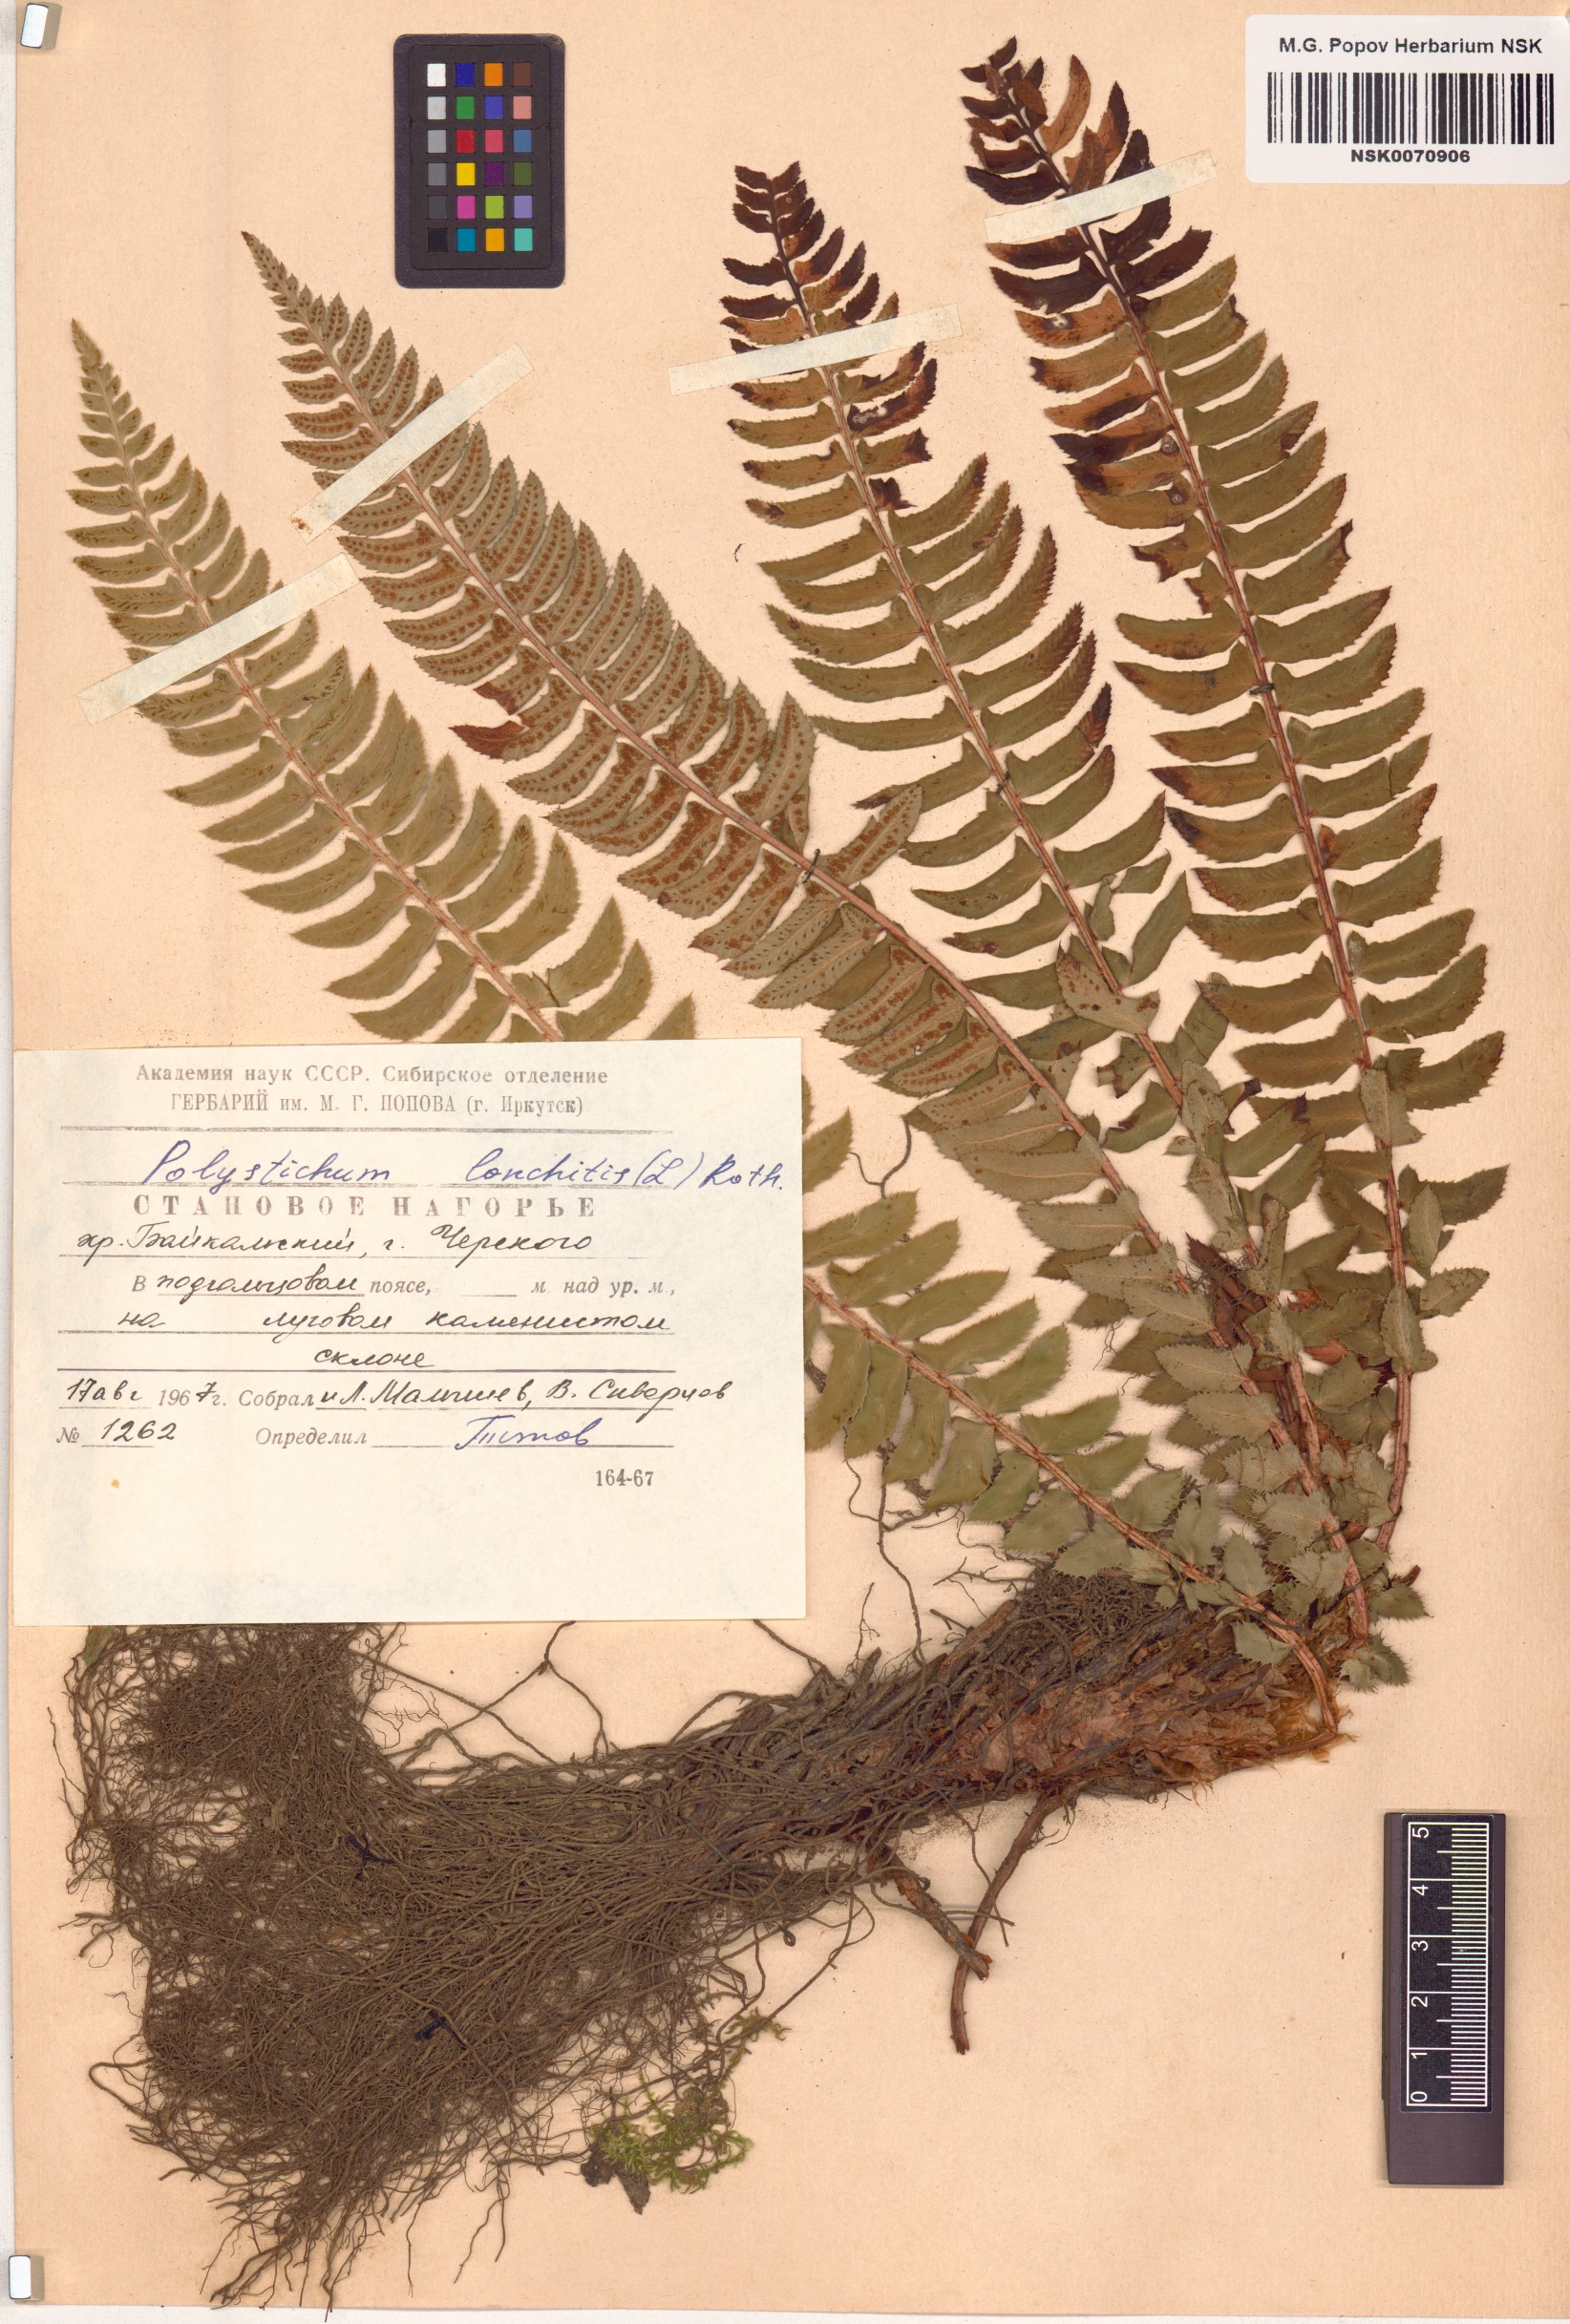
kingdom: Plantae
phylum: Tracheophyta
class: Polypodiopsida
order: Polypodiales
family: Dryopteridaceae
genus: Polystichum
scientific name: Polystichum lonchitis
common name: Holly fern
